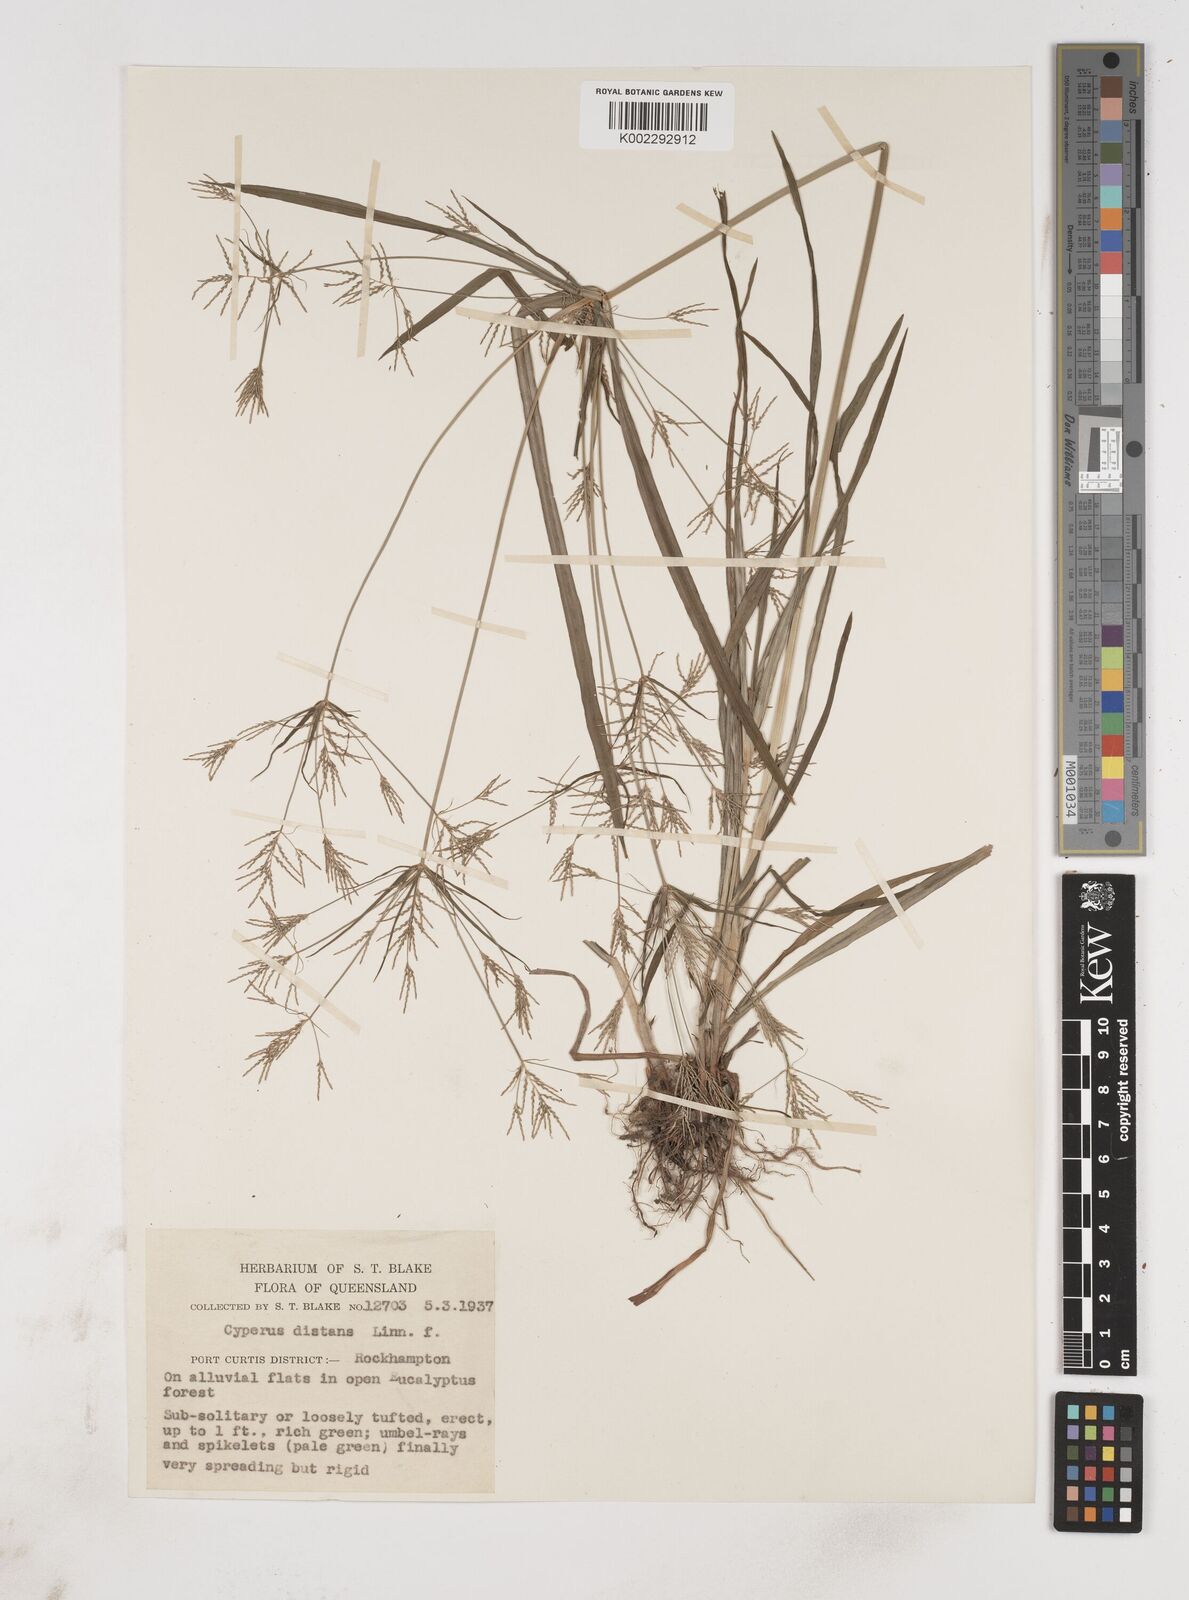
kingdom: Plantae
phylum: Tracheophyta
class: Liliopsida
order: Poales
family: Cyperaceae
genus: Cyperus
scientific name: Cyperus distans
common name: Slender cyperus
